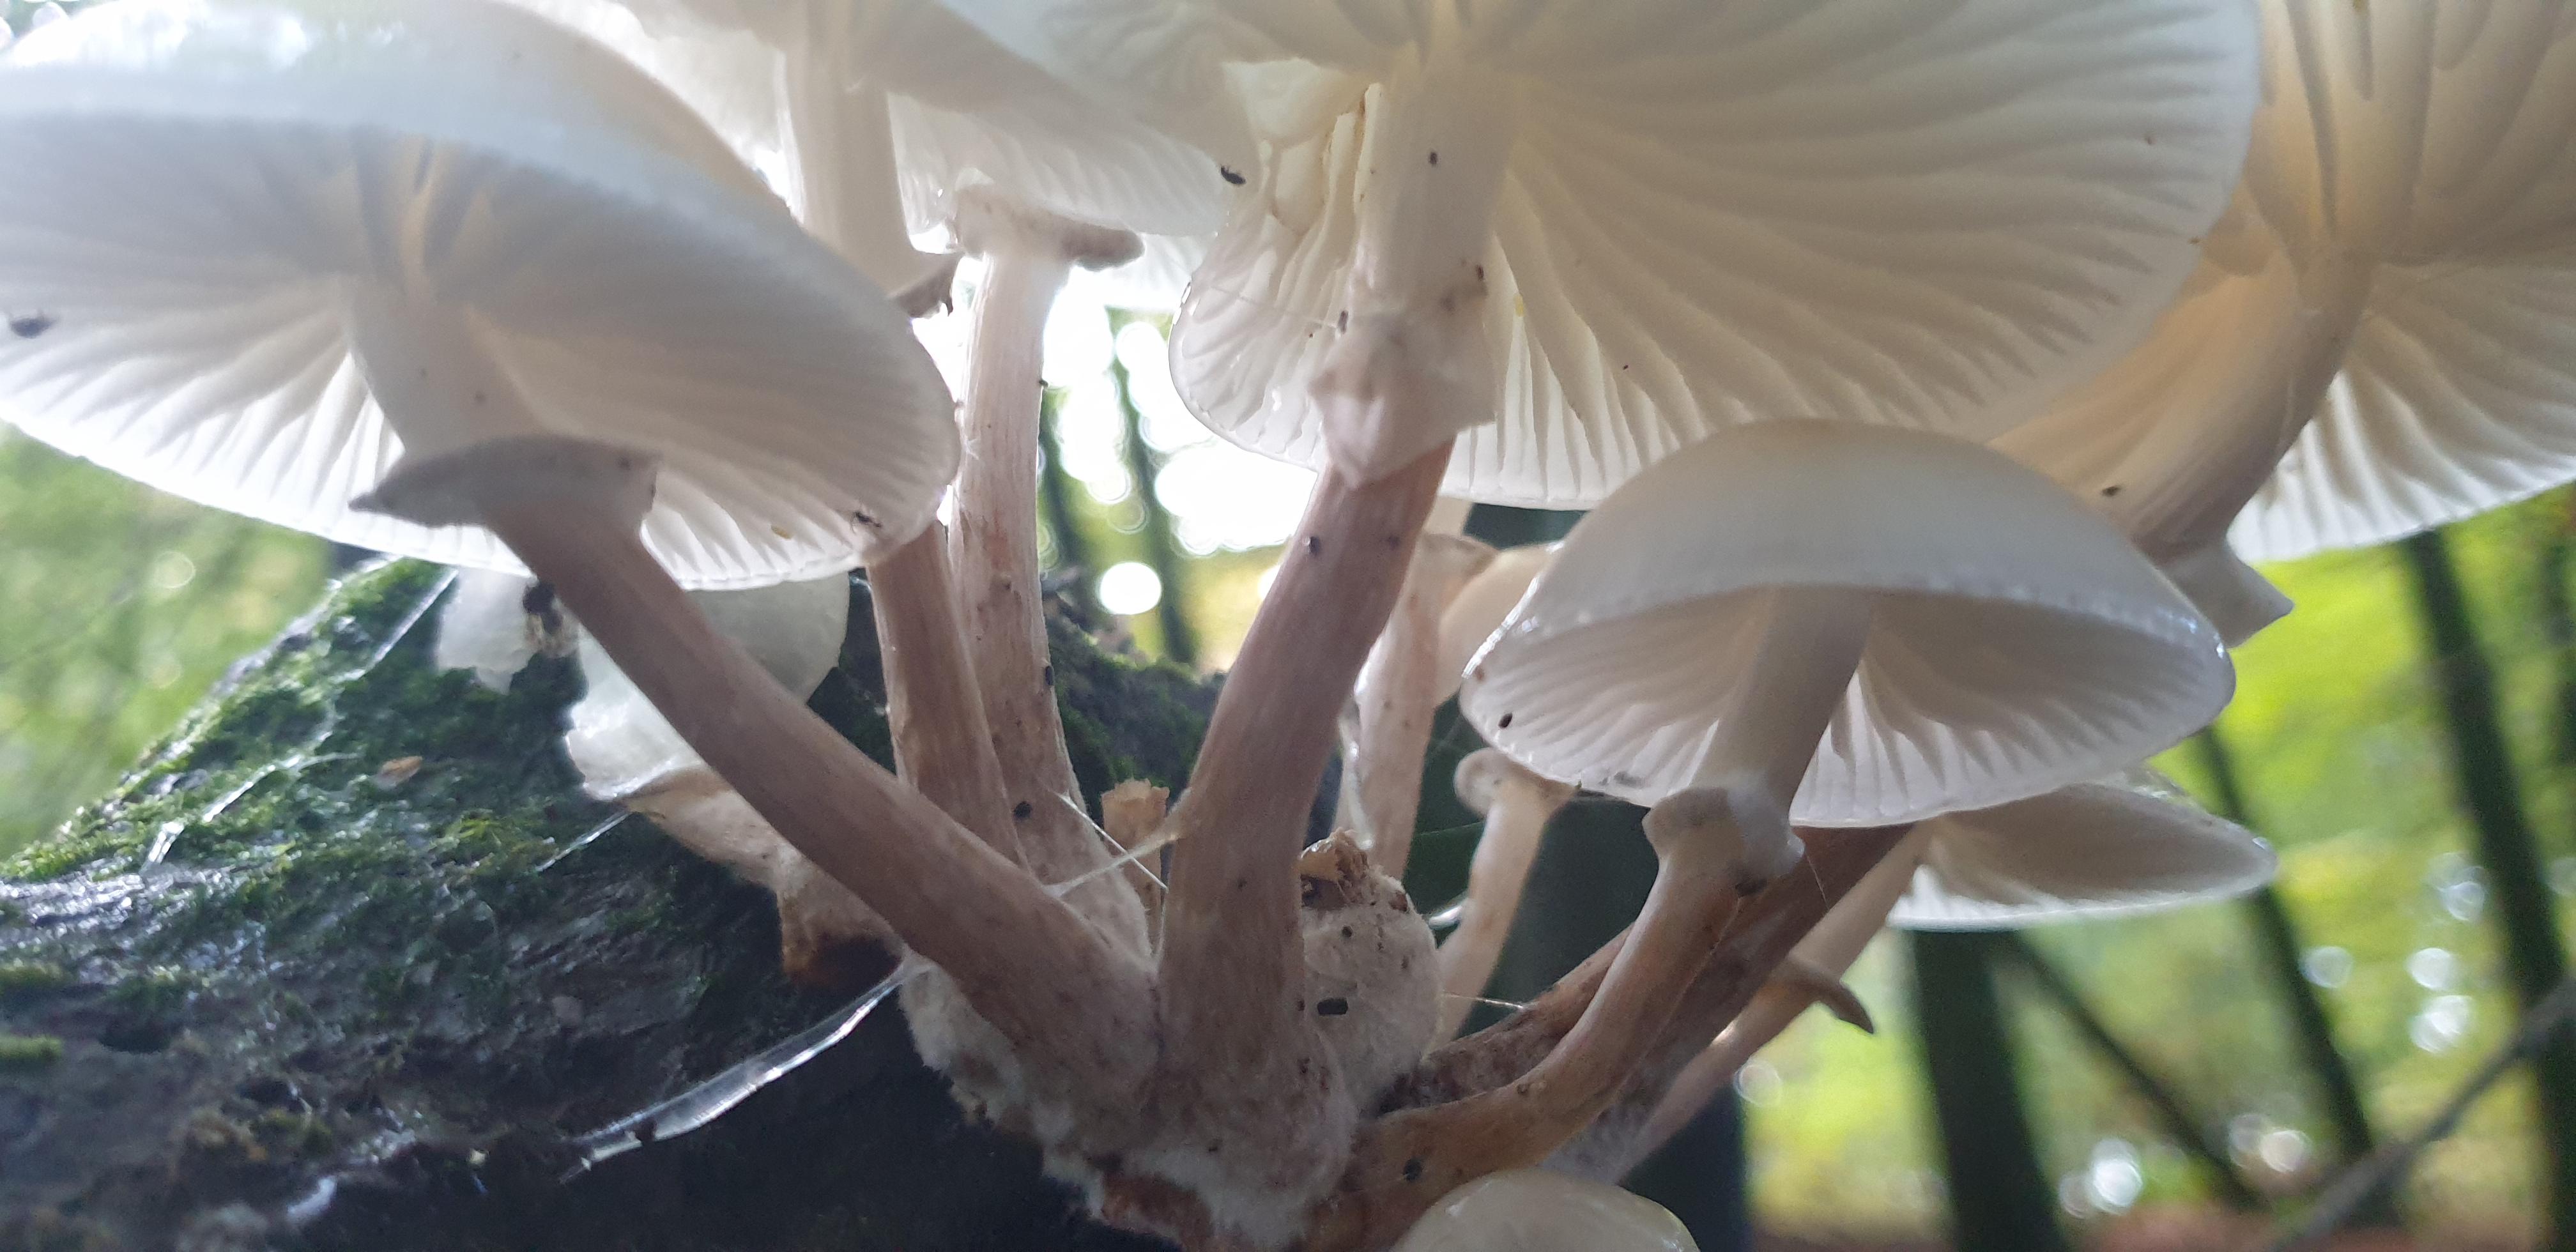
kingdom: Fungi
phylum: Basidiomycota
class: Agaricomycetes
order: Agaricales
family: Physalacriaceae
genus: Mucidula
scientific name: Mucidula mucida
